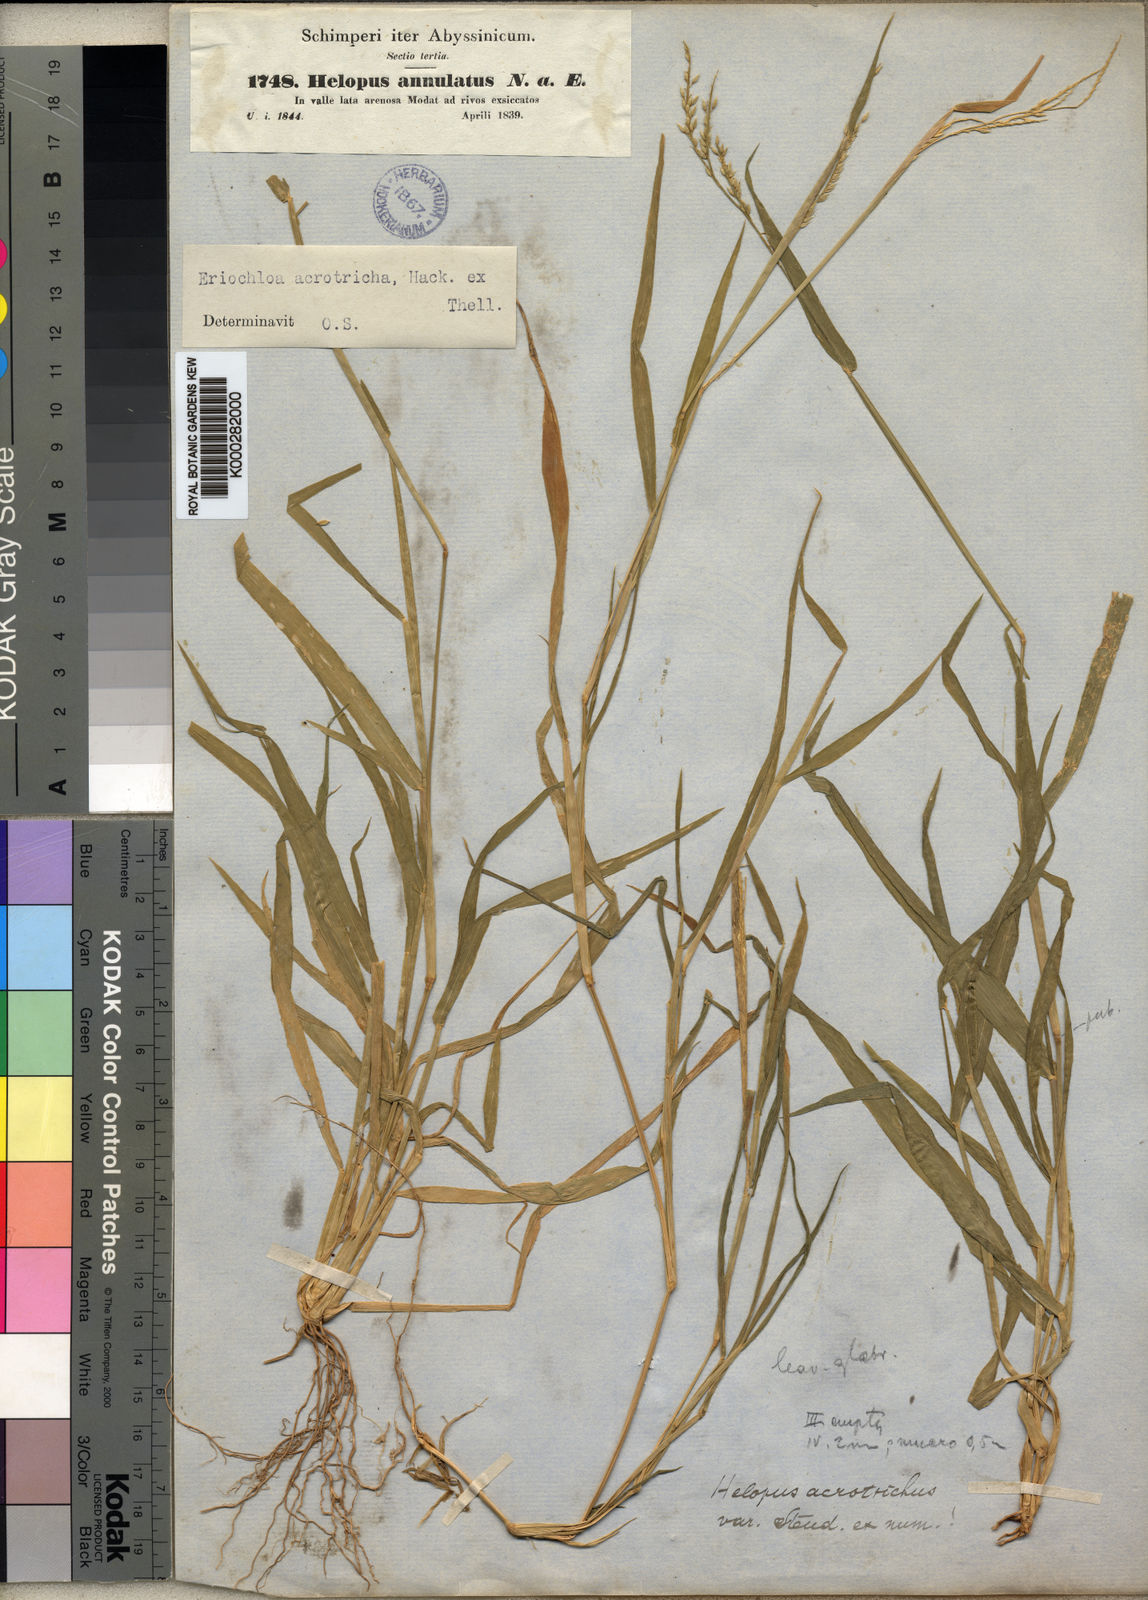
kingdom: Plantae
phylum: Tracheophyta
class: Liliopsida
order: Poales
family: Poaceae
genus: Eriochloa
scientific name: Eriochloa procera
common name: Spring grass
